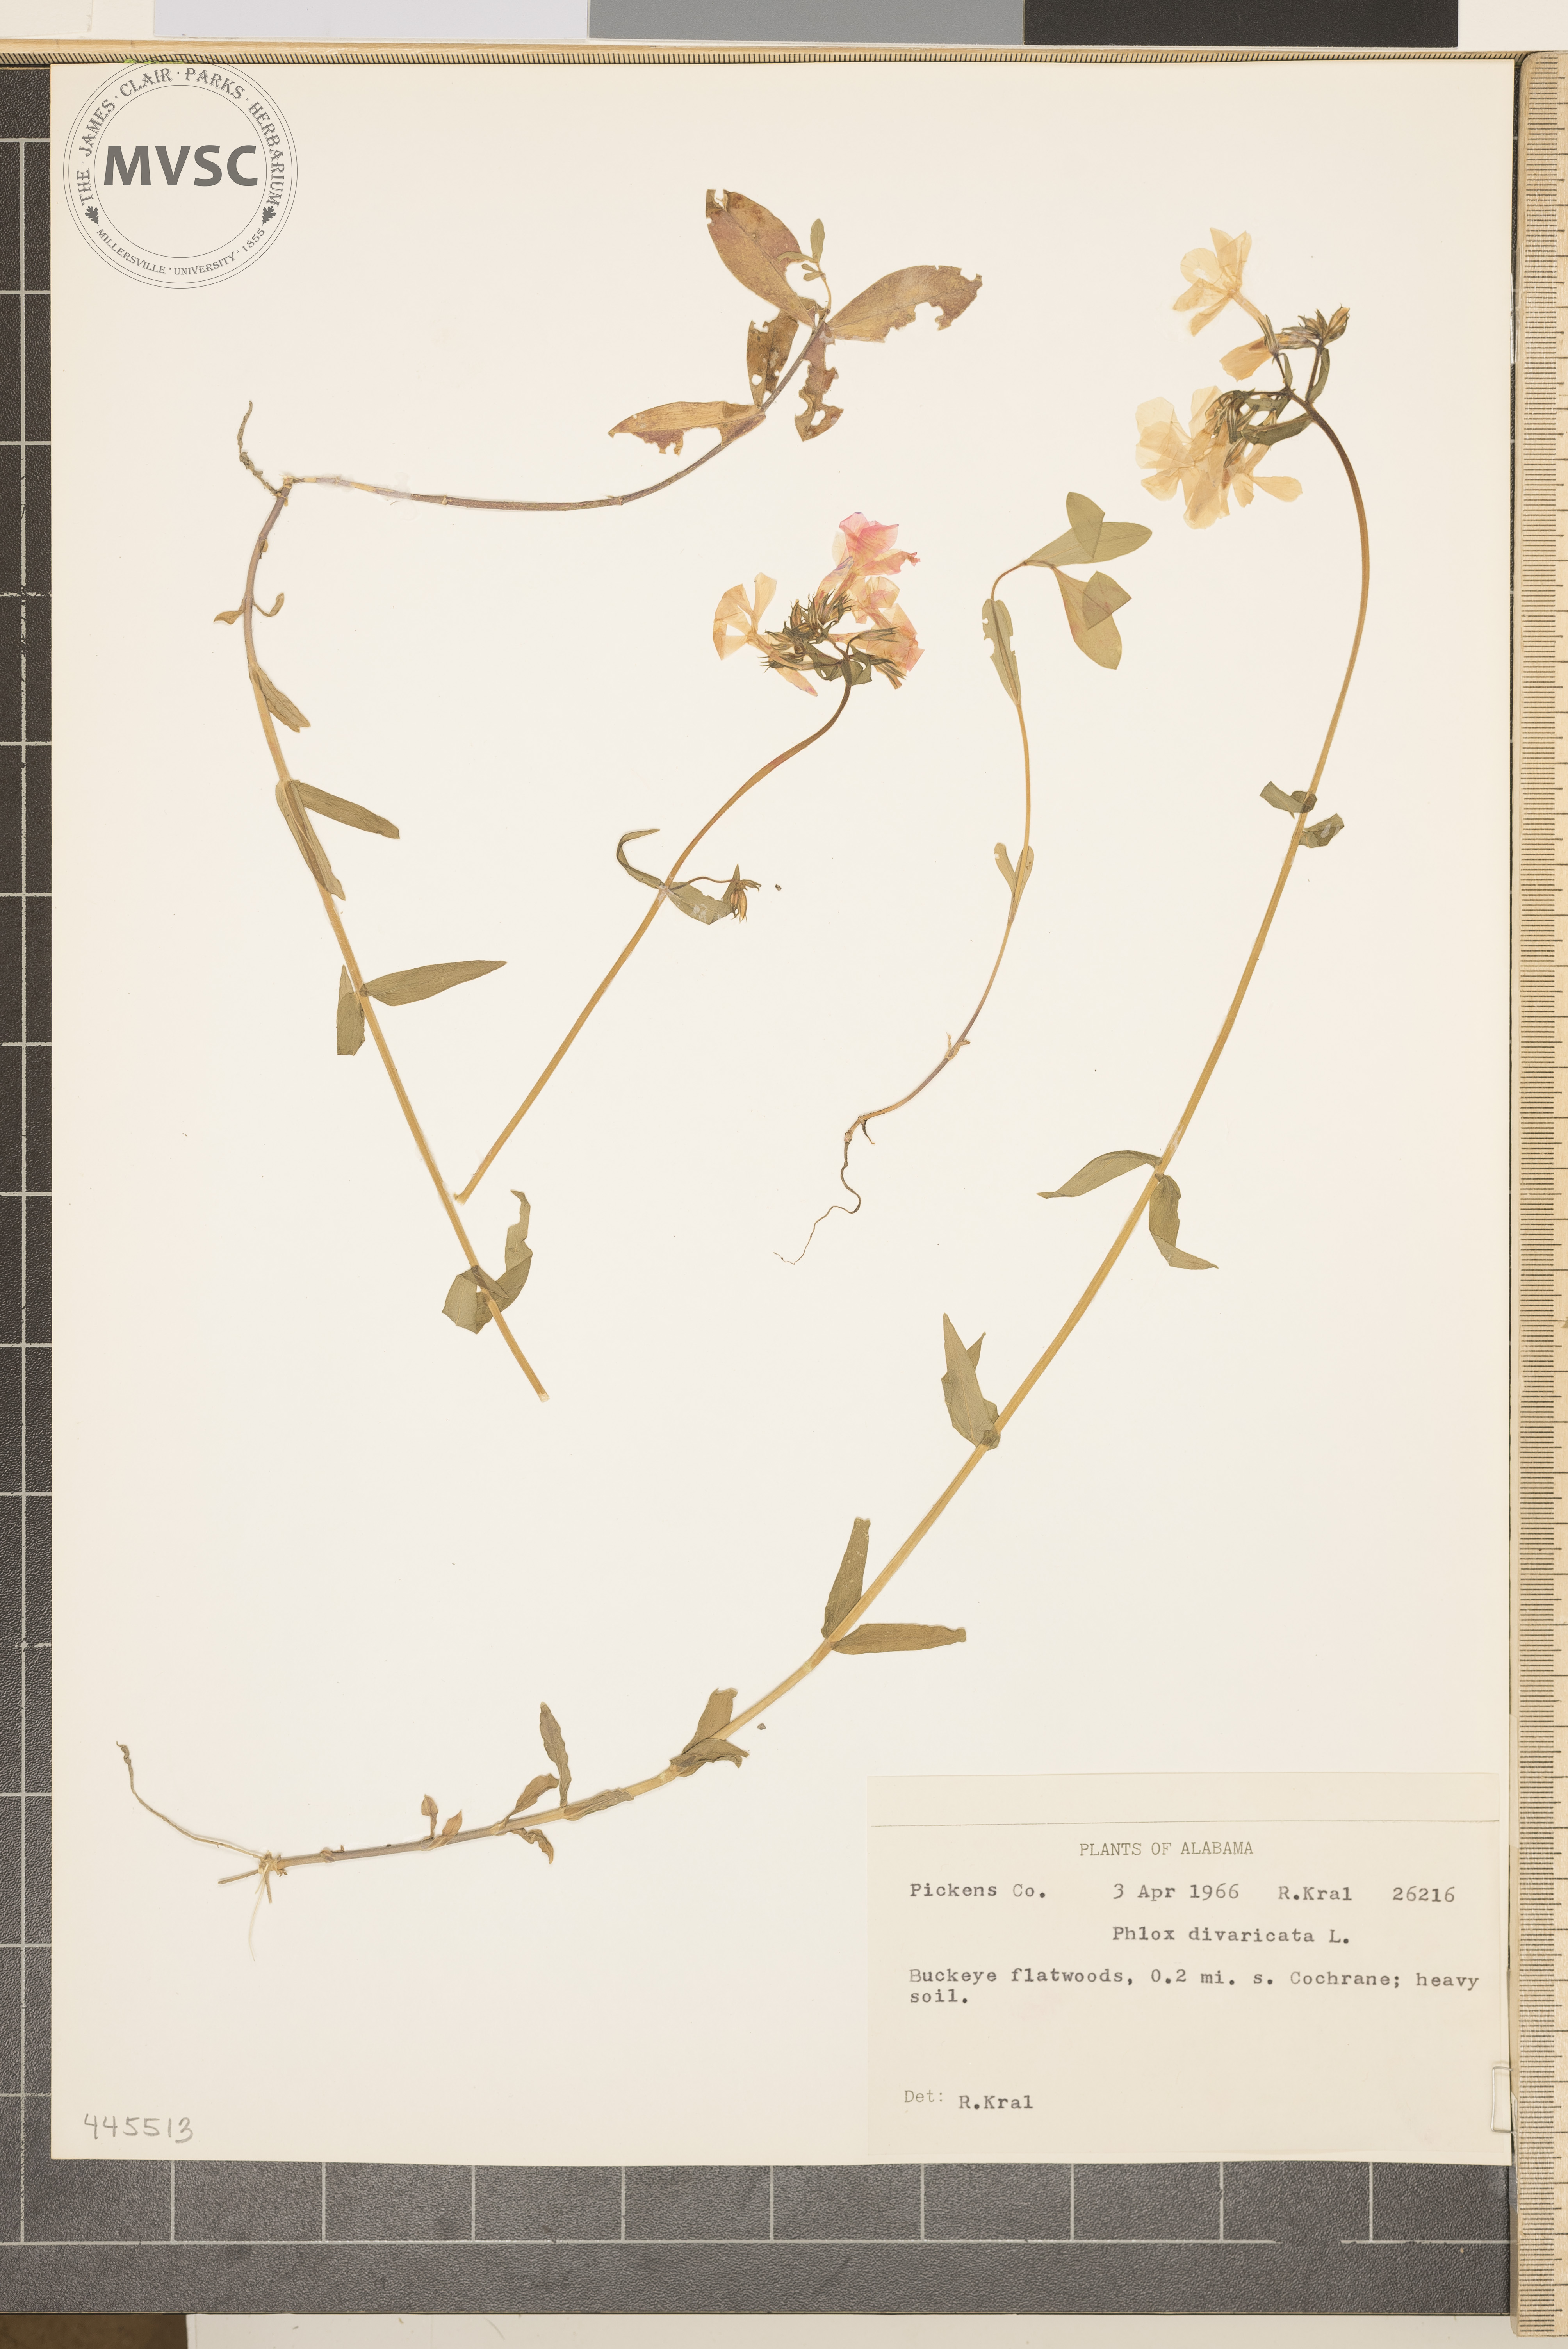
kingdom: Plantae
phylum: Tracheophyta
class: Magnoliopsida
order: Ericales
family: Polemoniaceae
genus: Phlox
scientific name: Phlox divaricata
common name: Blue phlox
